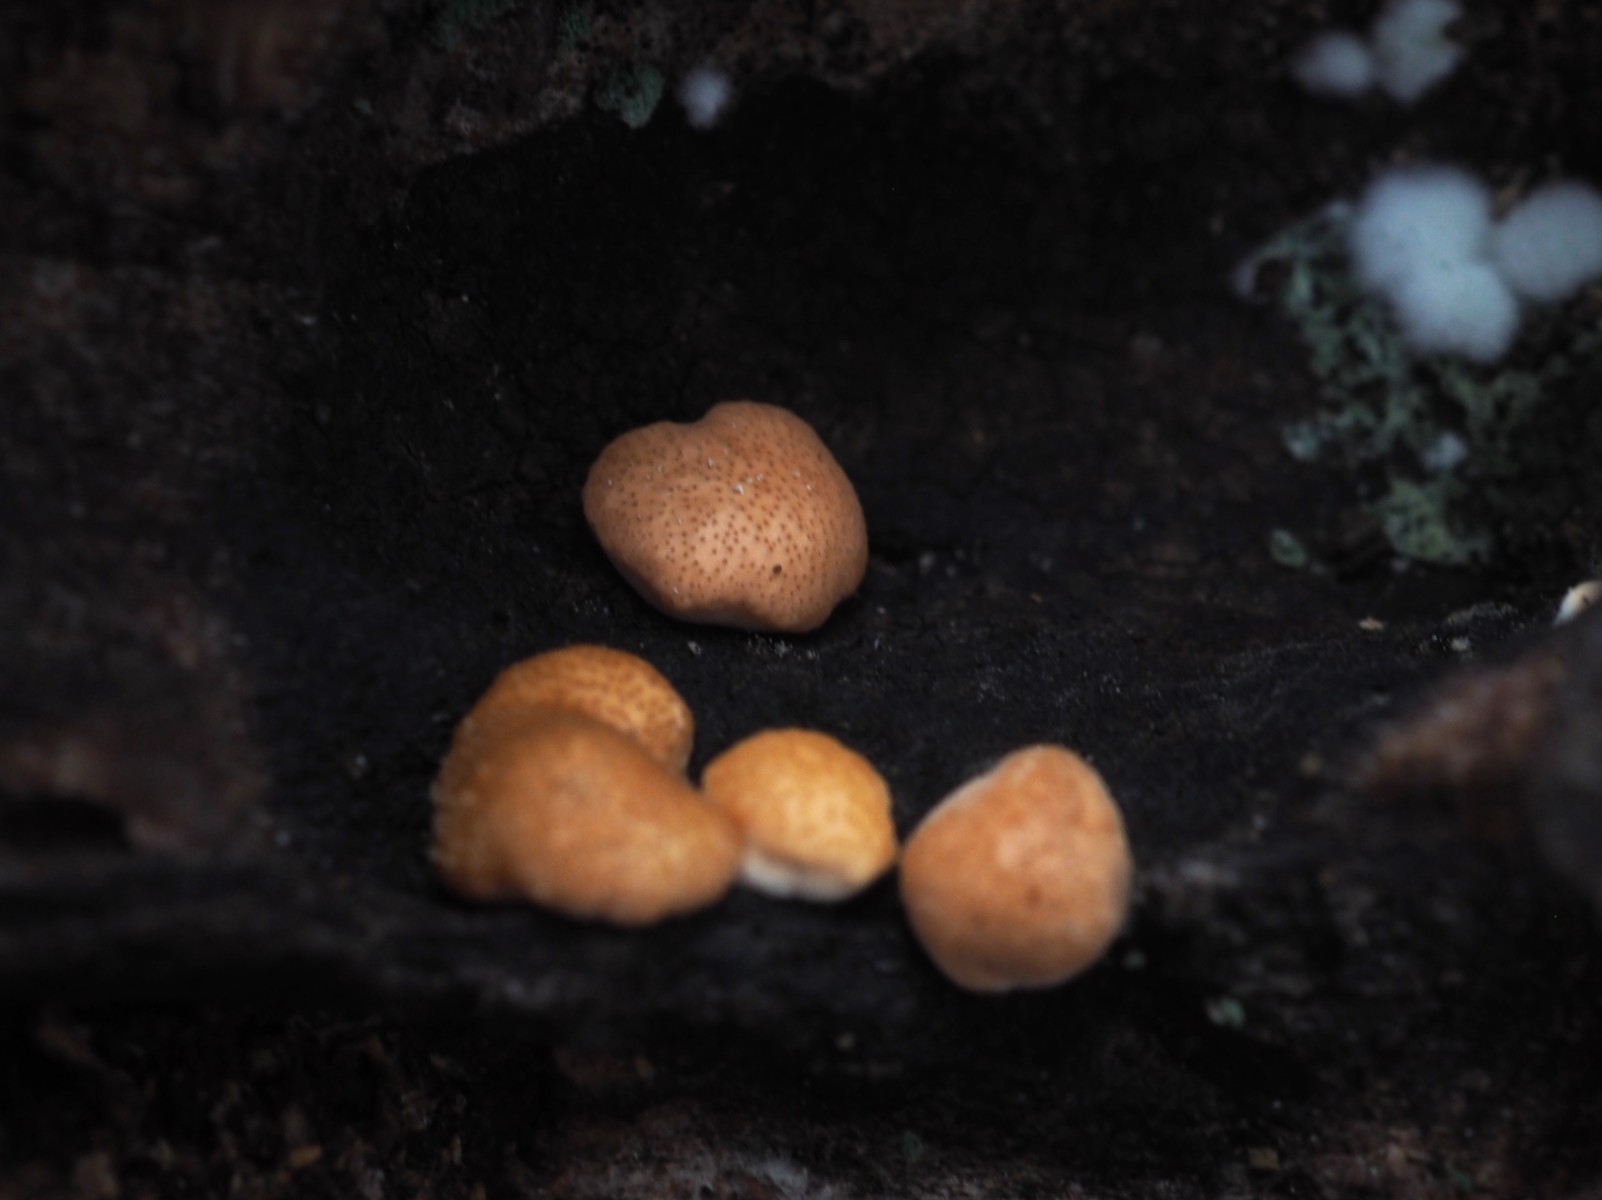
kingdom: Fungi
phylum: Ascomycota
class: Sordariomycetes
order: Hypocreales
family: Hypocreaceae
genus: Trichoderma
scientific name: Trichoderma europaeum
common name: rosabrun kødkerne
